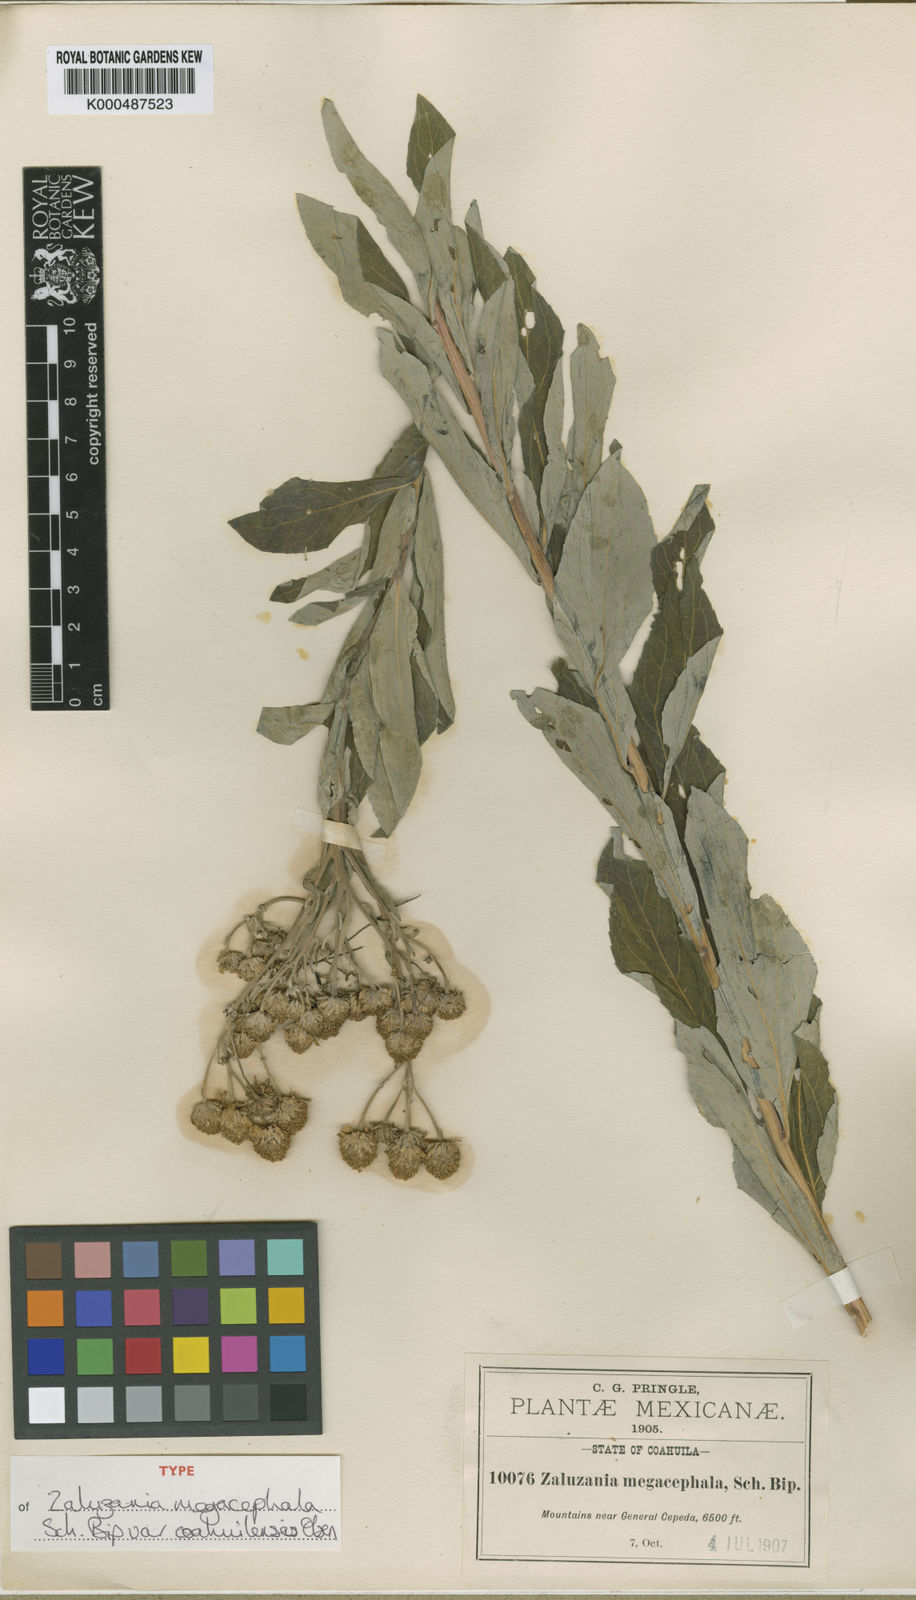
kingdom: Plantae
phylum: Tracheophyta
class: Magnoliopsida
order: Asterales
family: Asteraceae
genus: Zaluzania
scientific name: Zaluzania megacephala
